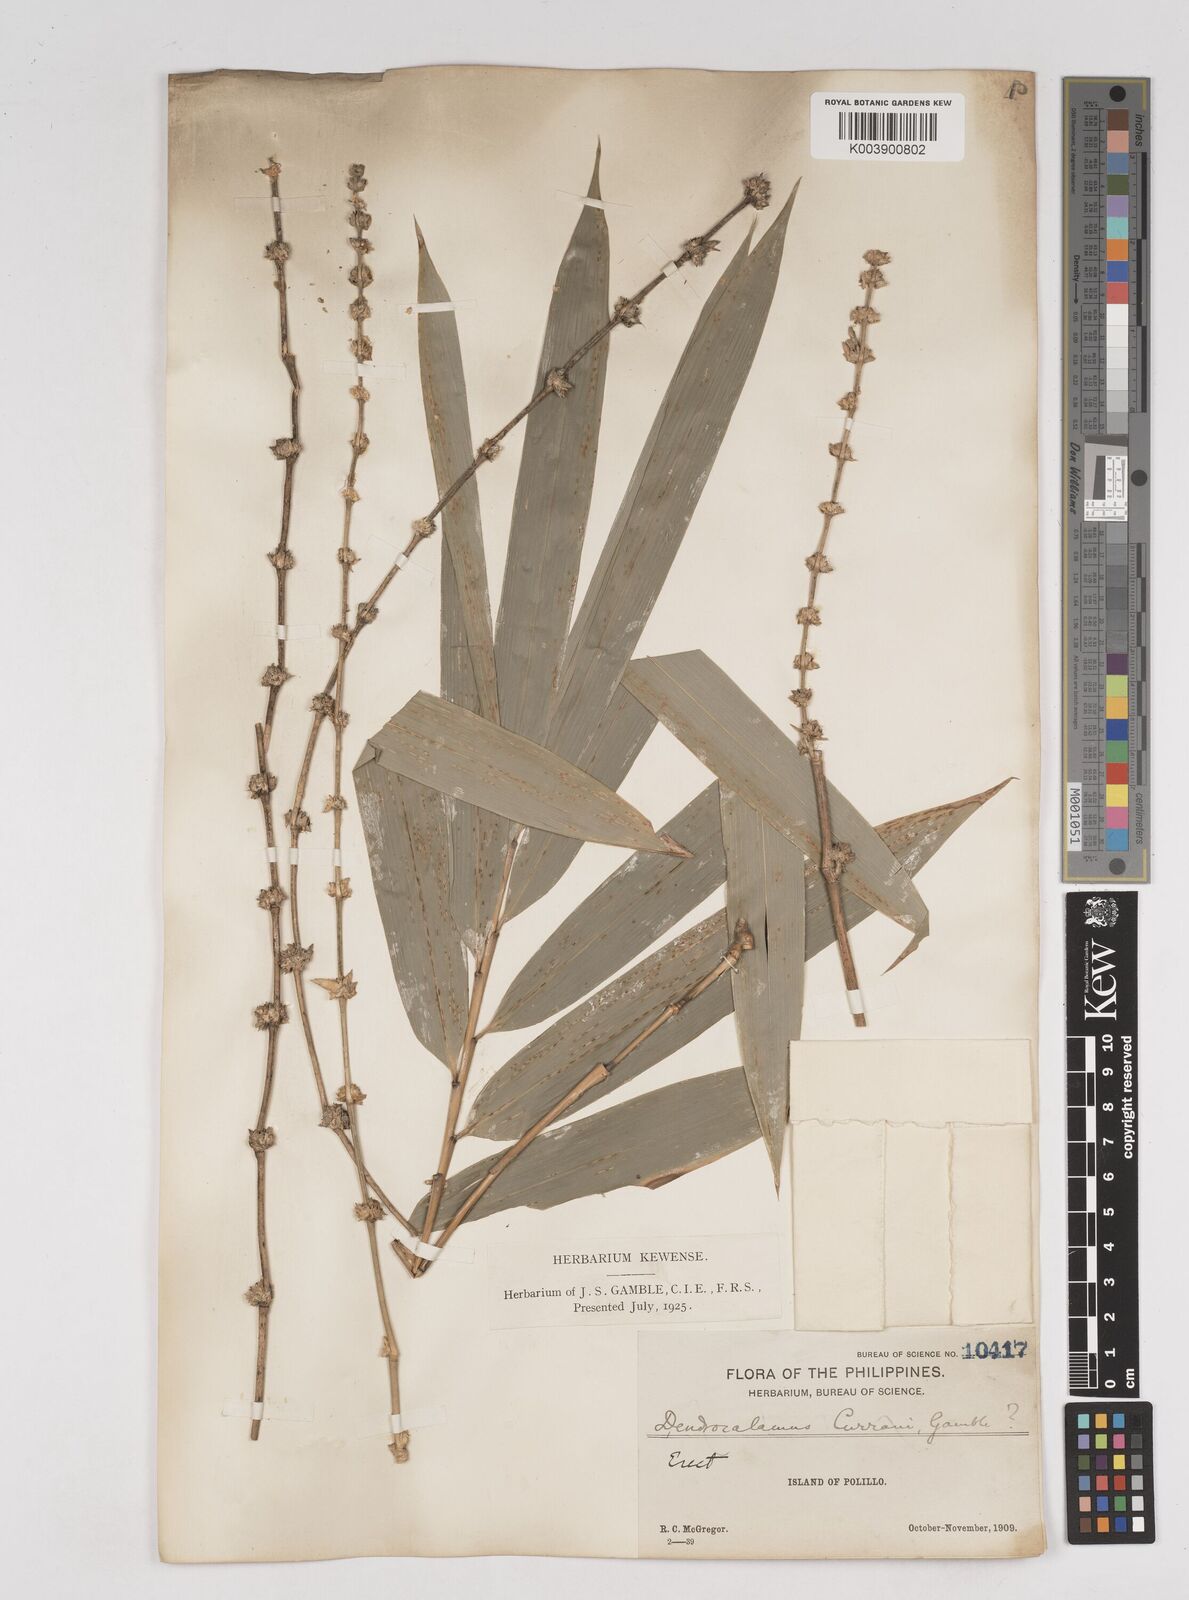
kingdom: Plantae
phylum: Tracheophyta
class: Liliopsida
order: Poales
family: Poaceae
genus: Gigantochloa
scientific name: Gigantochloa levis
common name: Smooth-shoot gigantochloa
